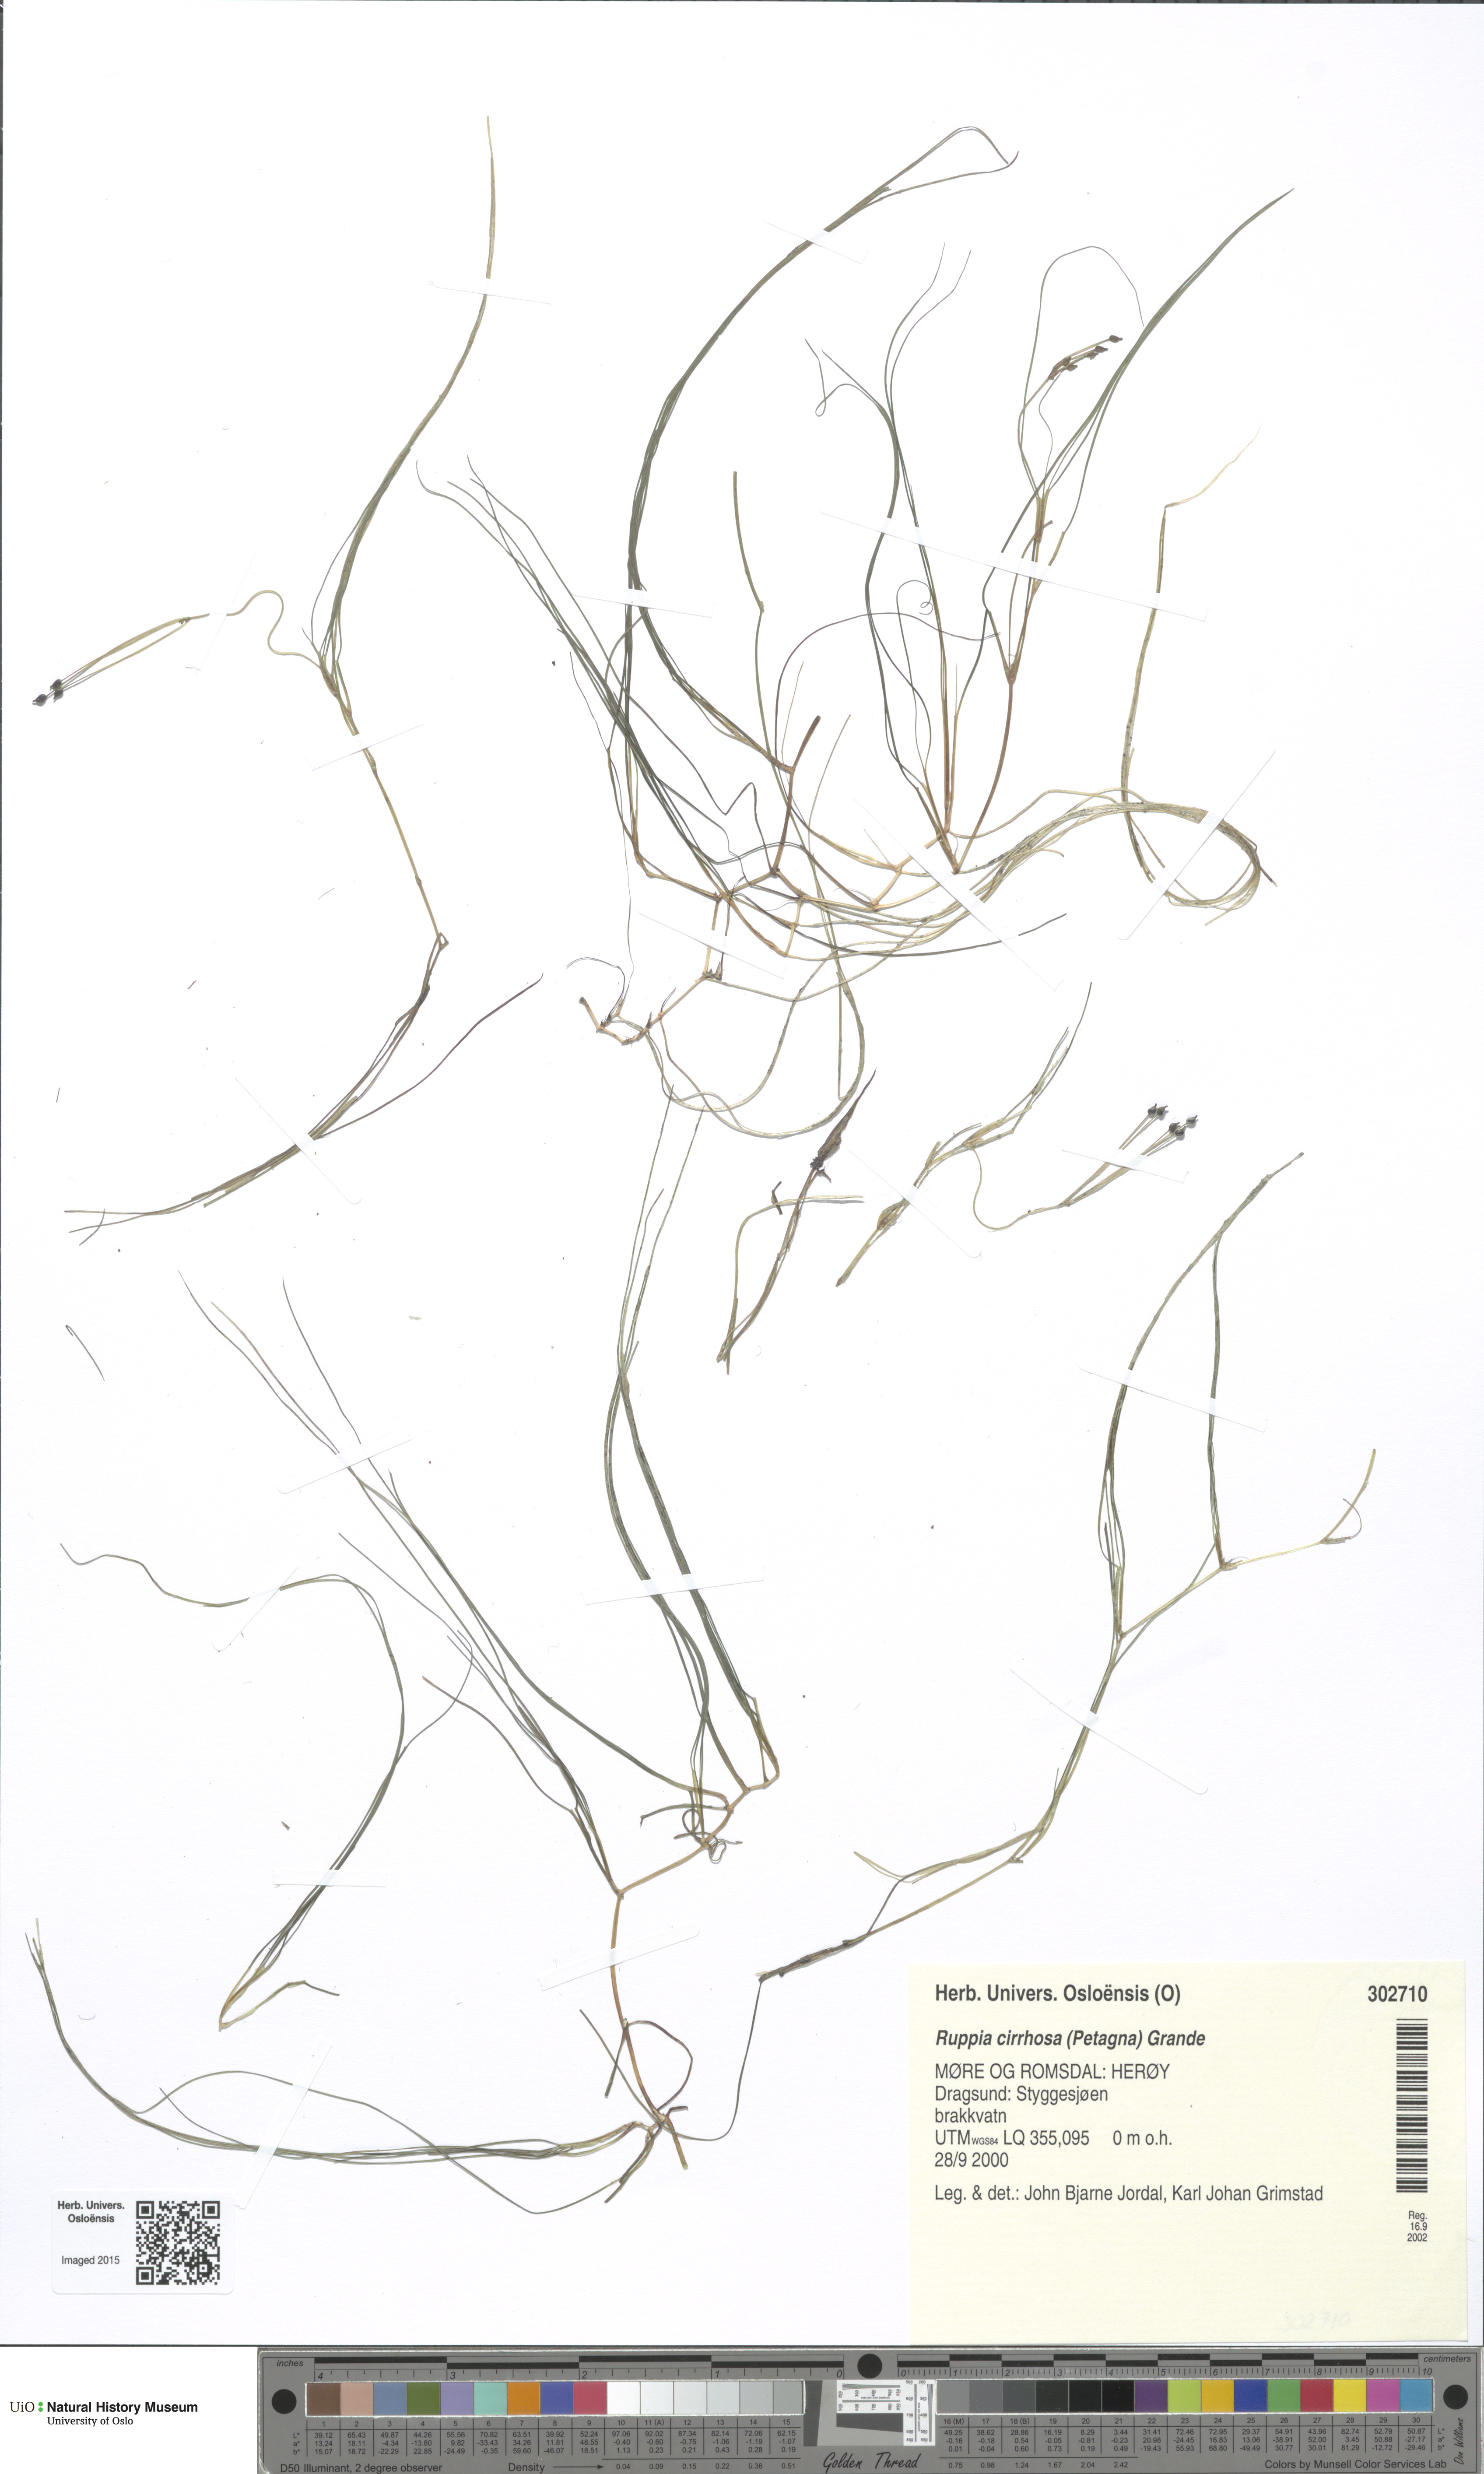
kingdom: Plantae
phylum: Tracheophyta
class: Liliopsida
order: Alismatales
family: Ruppiaceae
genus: Ruppia
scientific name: Ruppia cirrhosa
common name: Spiral tasselweed
